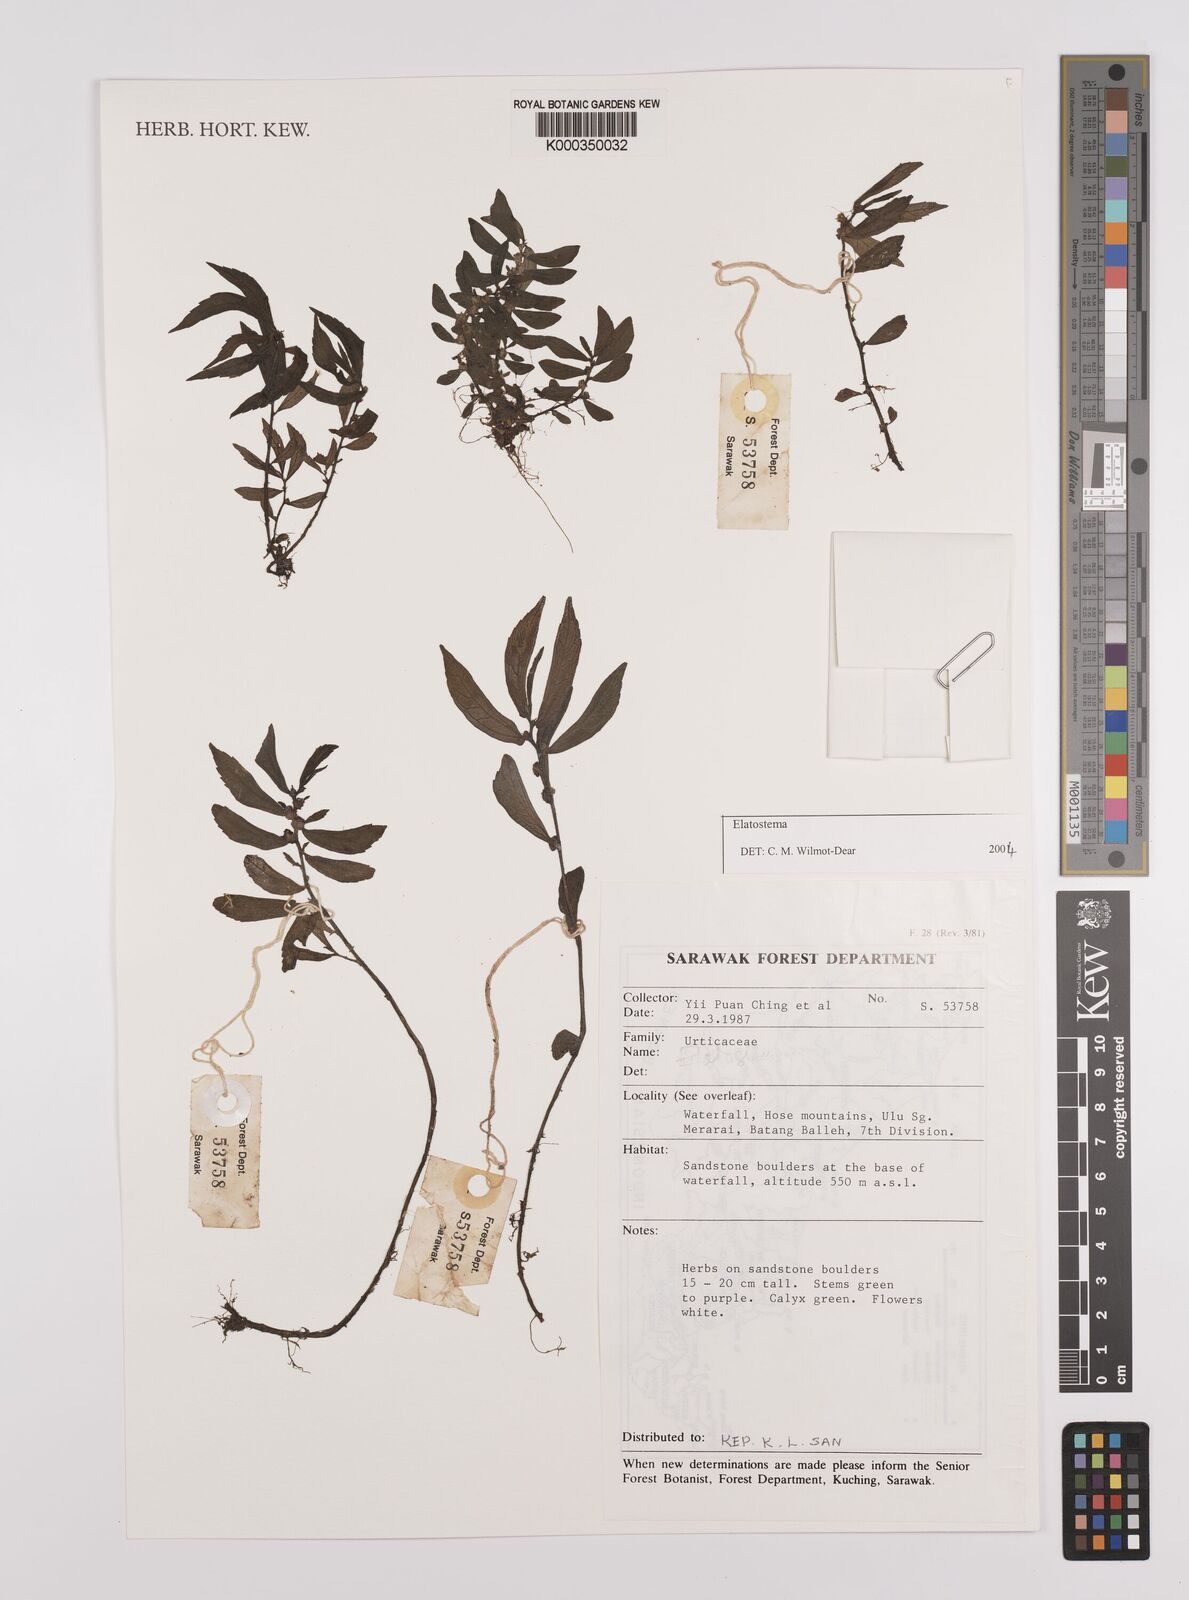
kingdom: Plantae
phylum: Tracheophyta
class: Magnoliopsida
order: Rosales
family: Urticaceae
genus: Elatostema
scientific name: Elatostema
